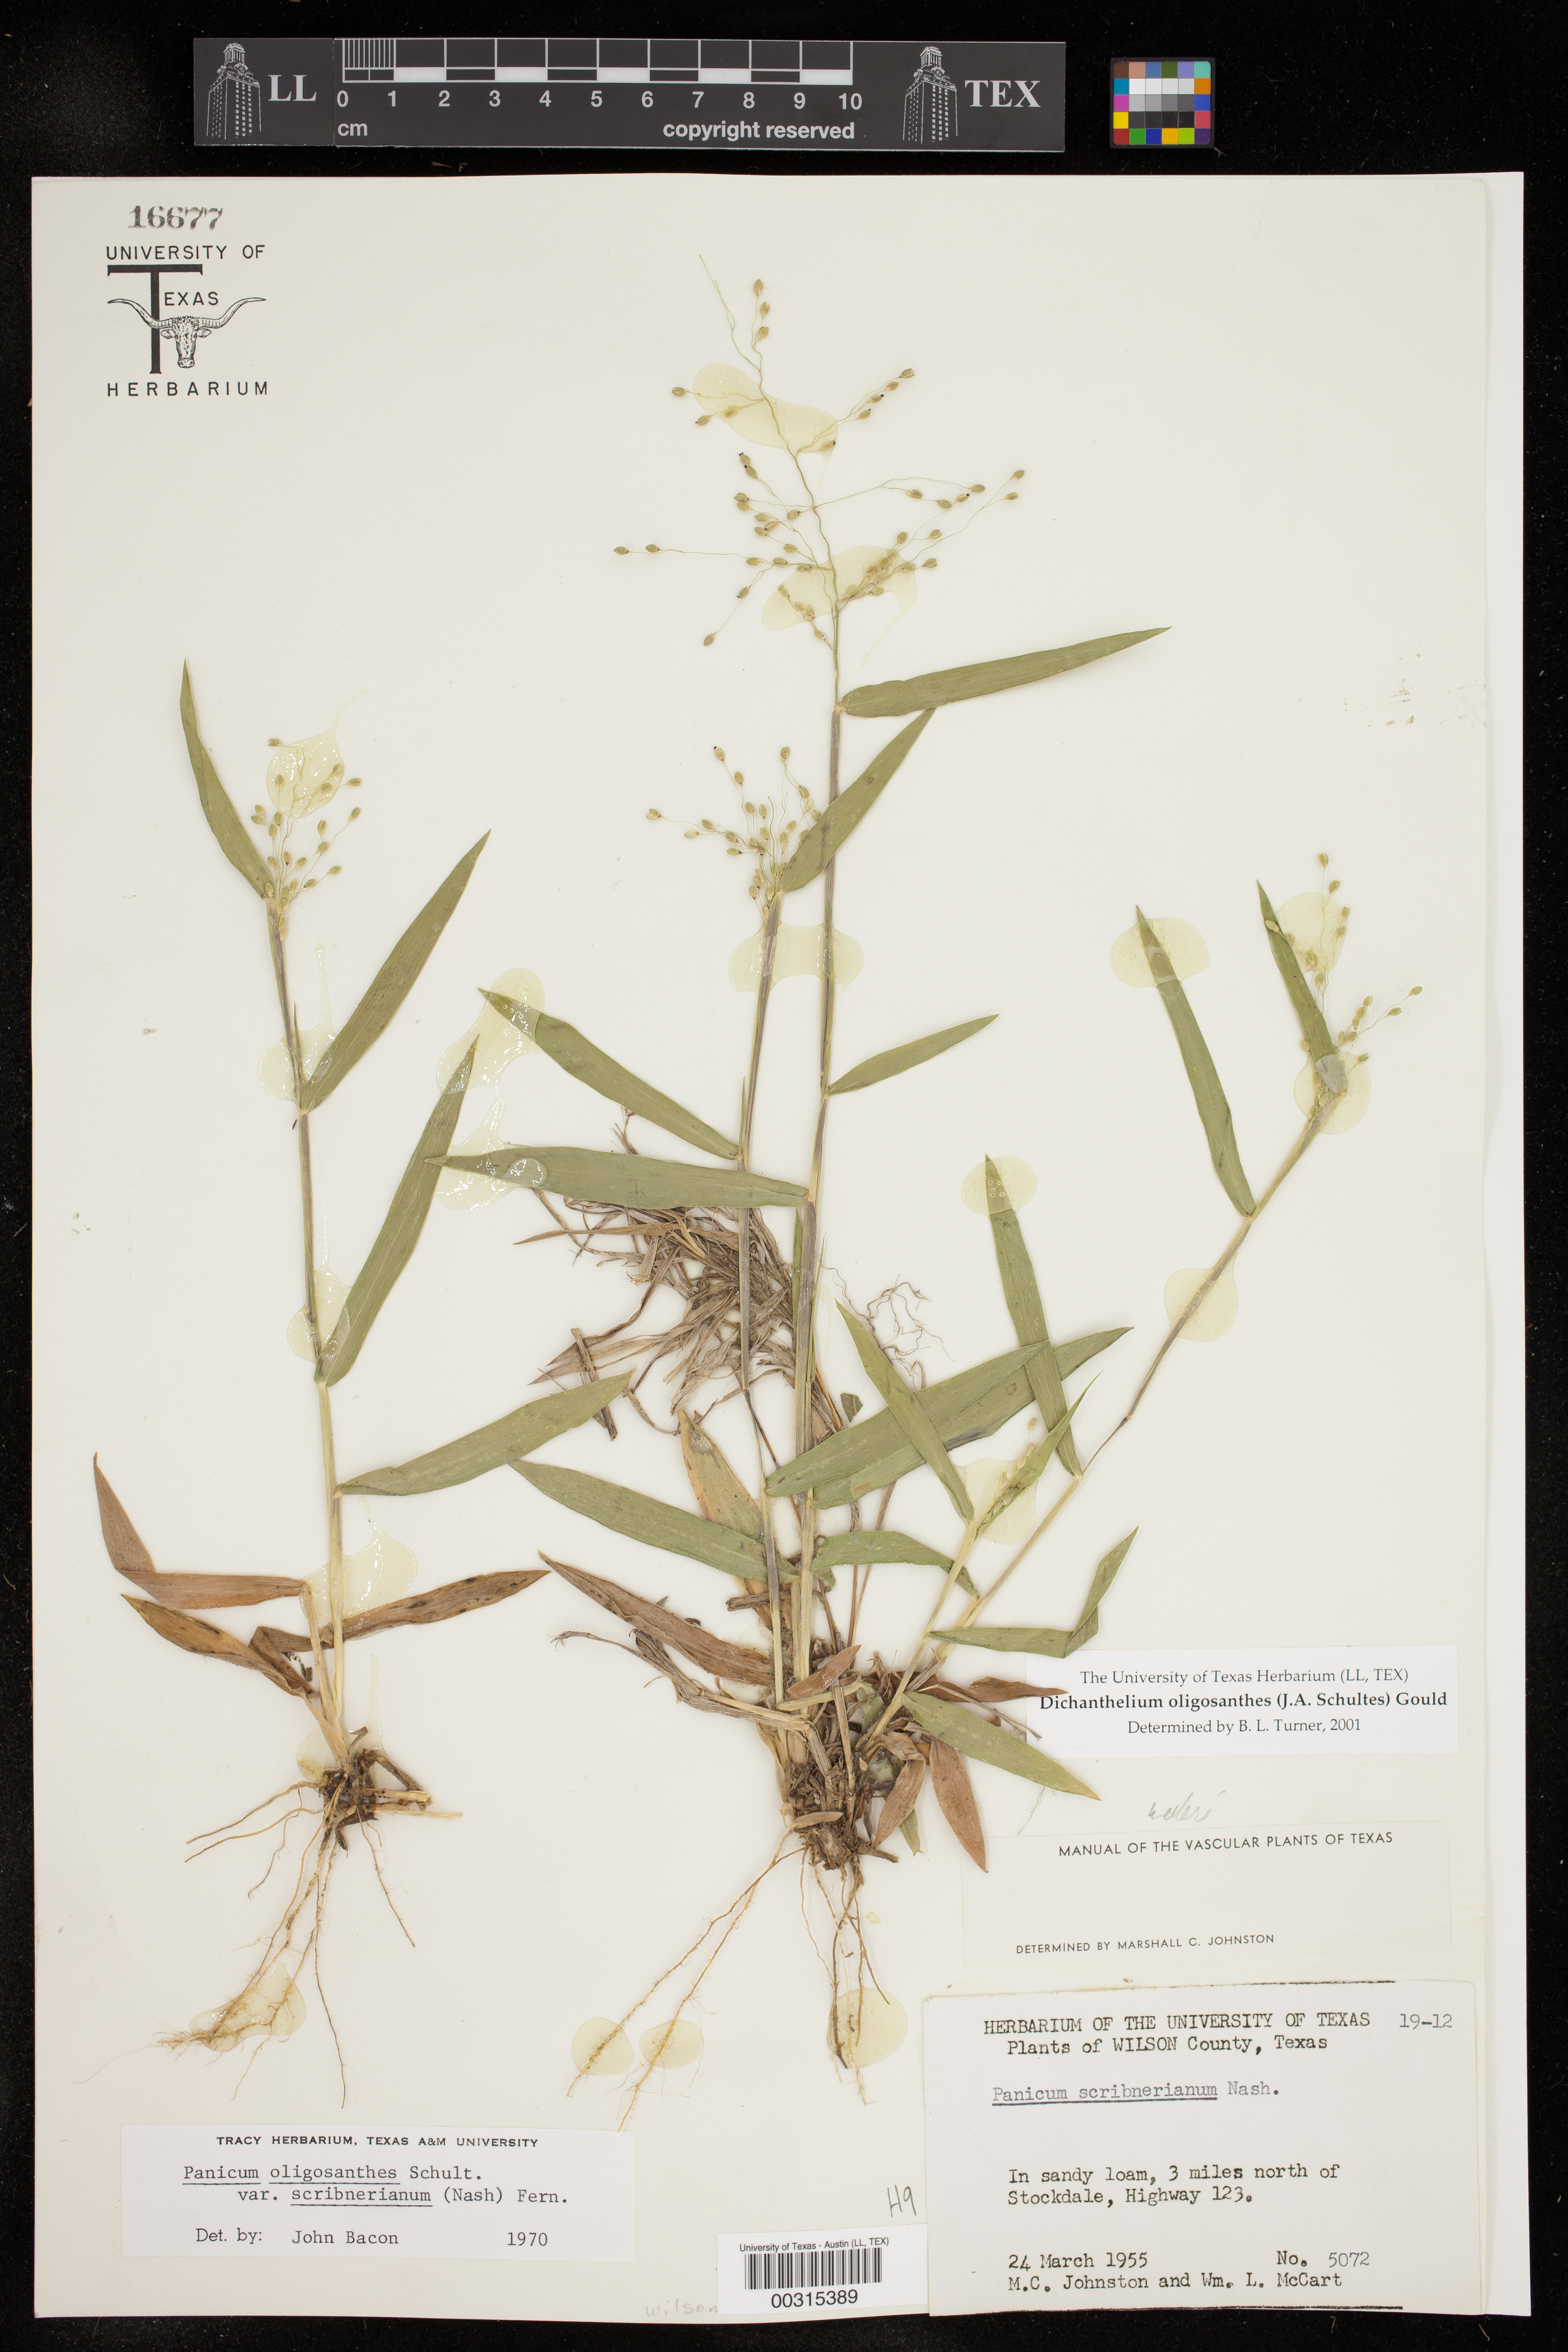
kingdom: Plantae
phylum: Tracheophyta
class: Liliopsida
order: Poales
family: Poaceae
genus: Dichanthelium
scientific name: Dichanthelium oligosanthes
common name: Few-anther obscuregrass
